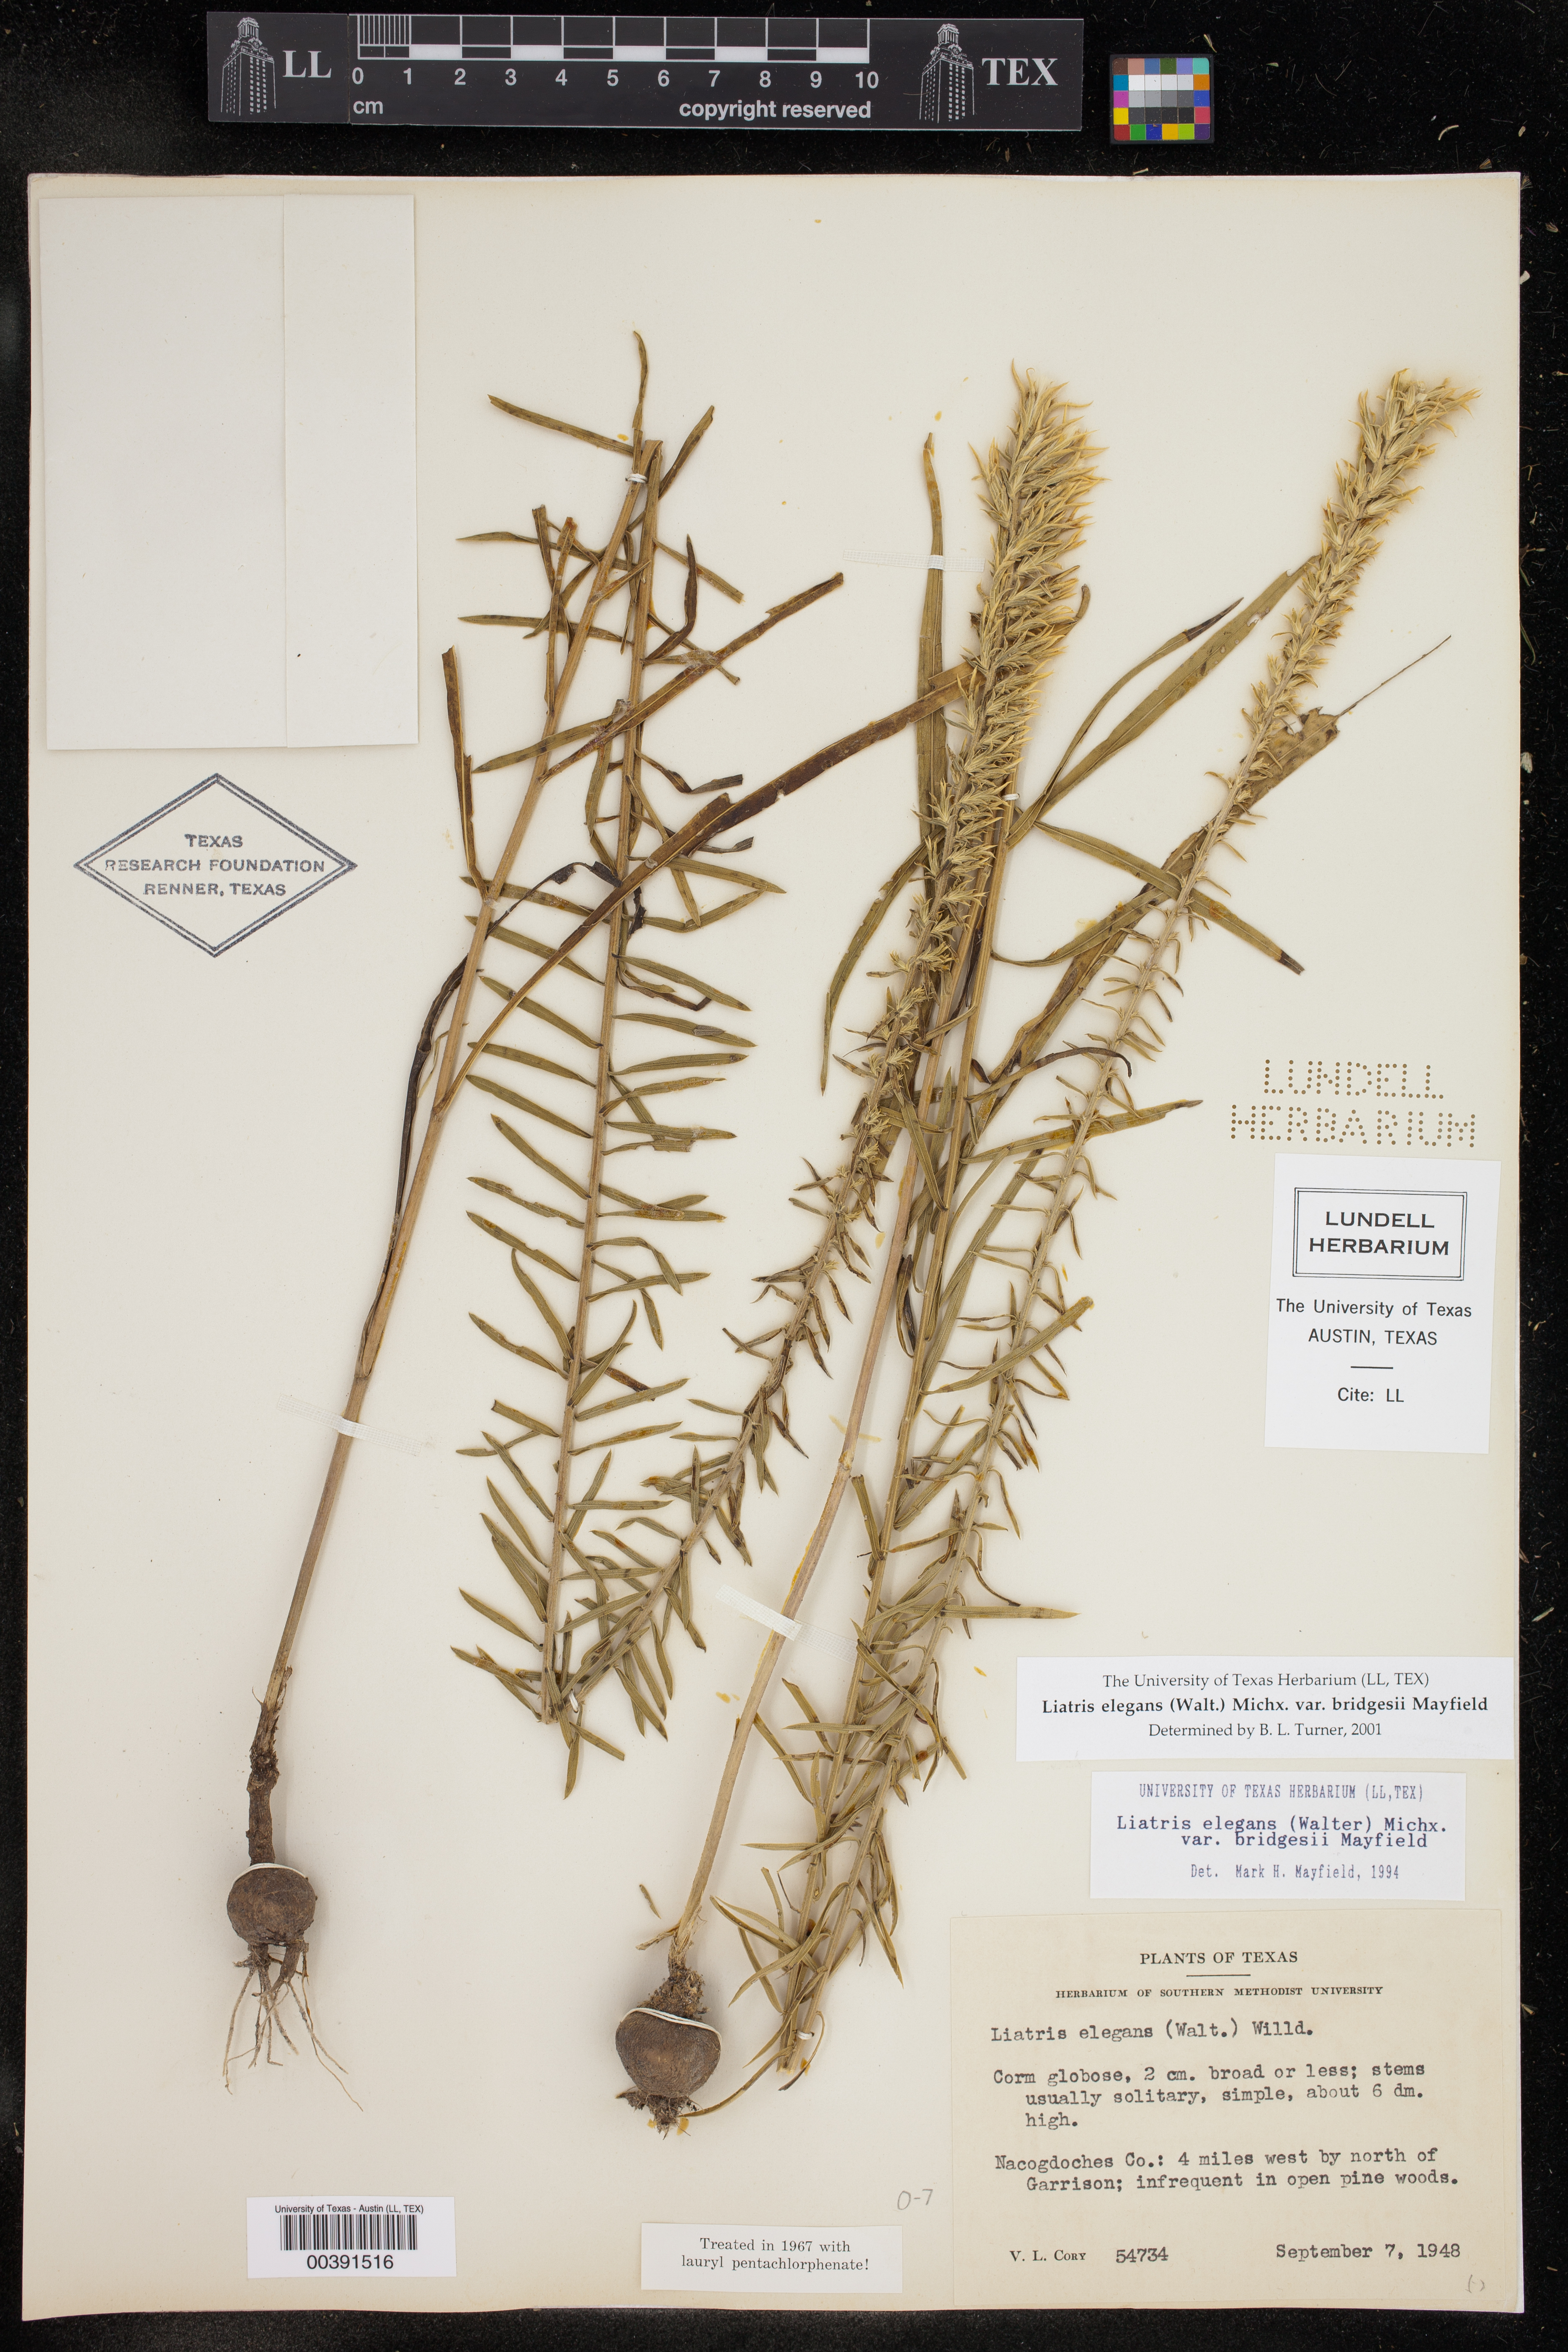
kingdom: Plantae
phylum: Tracheophyta
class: Magnoliopsida
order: Asterales
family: Asteraceae
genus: Liatris
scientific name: Liatris bridgesii
